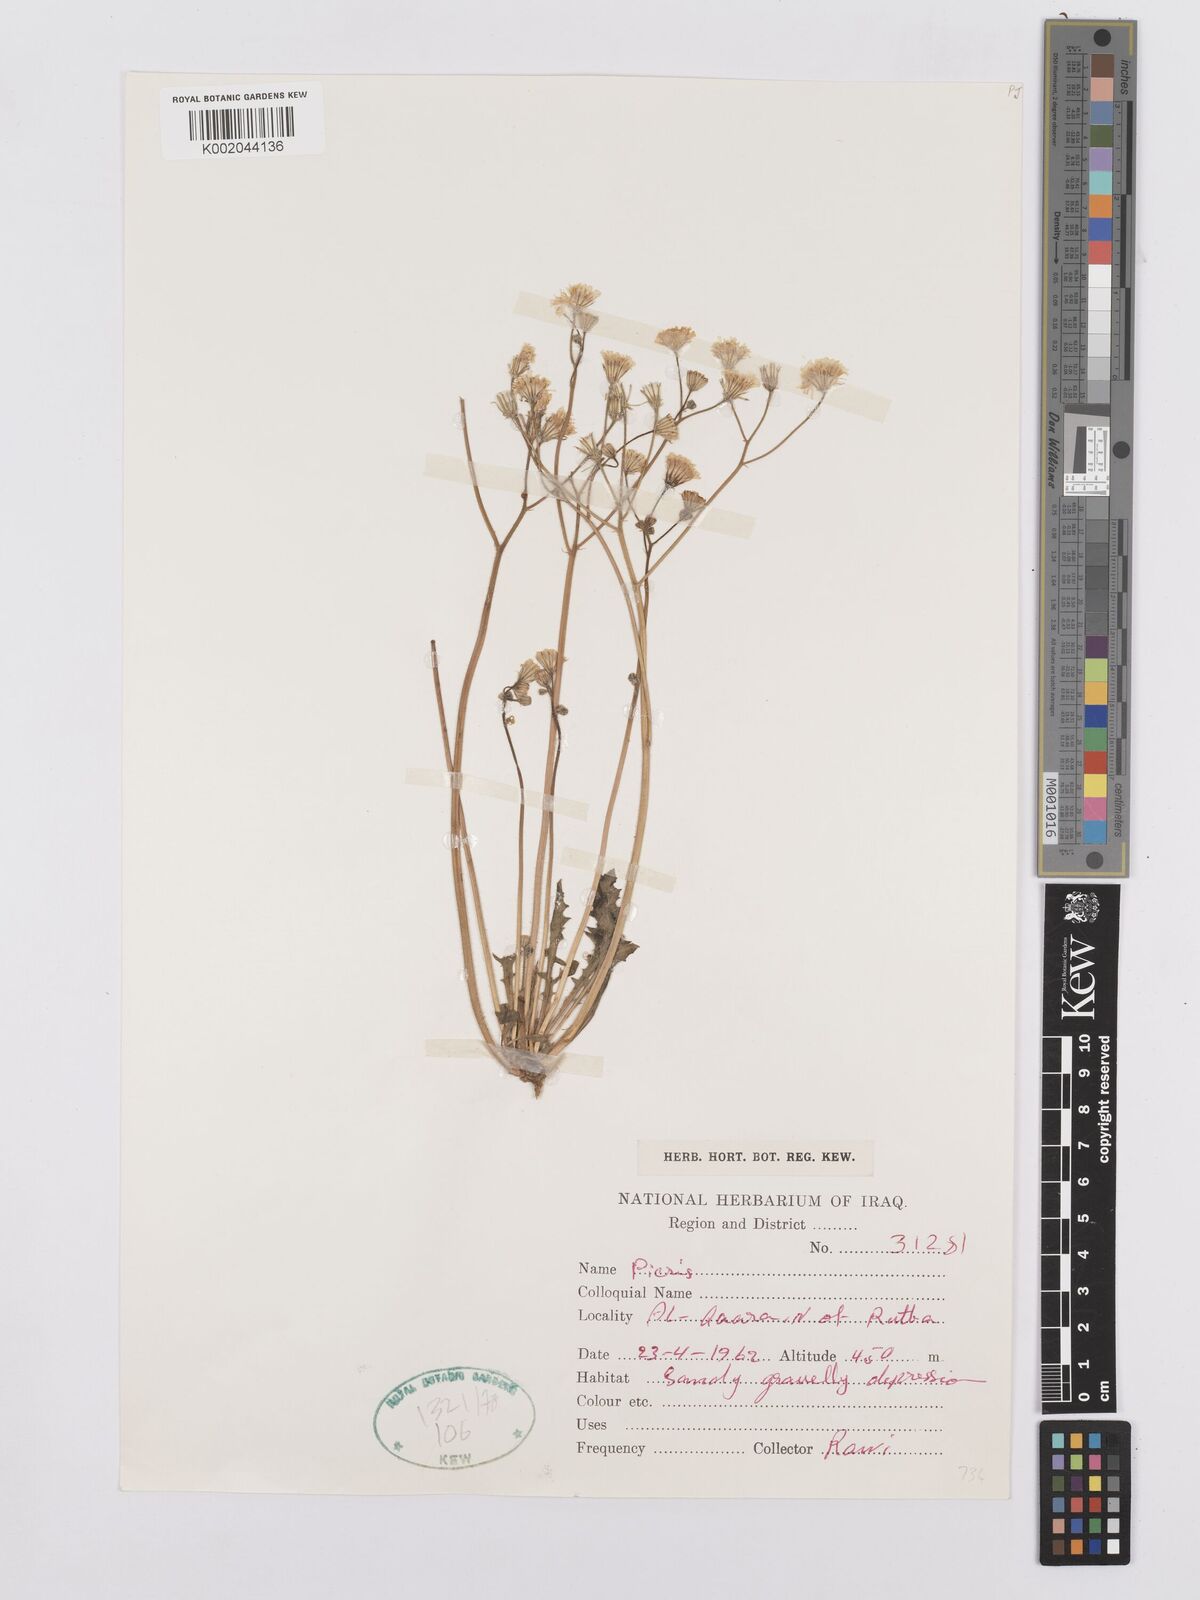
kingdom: Plantae
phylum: Tracheophyta
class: Magnoliopsida
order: Asterales
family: Asteraceae
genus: Picris
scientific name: Picris
